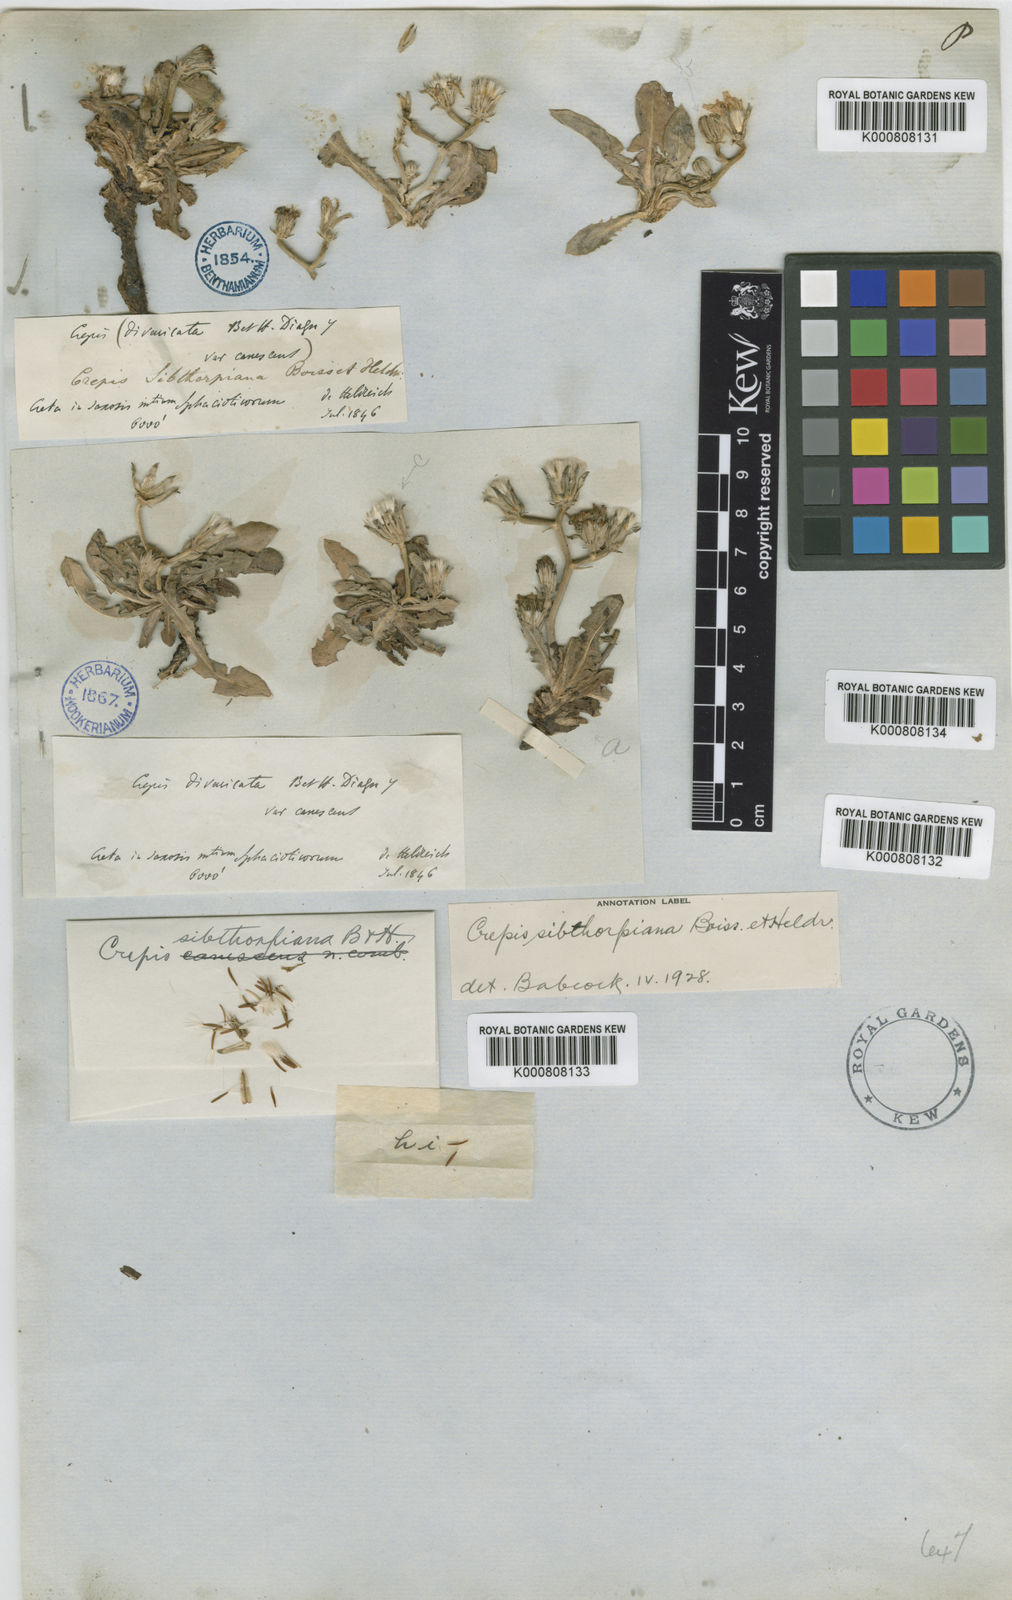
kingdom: Plantae
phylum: Tracheophyta
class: Magnoliopsida
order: Asterales
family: Asteraceae
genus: Crepis
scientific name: Crepis sibthorpiana
